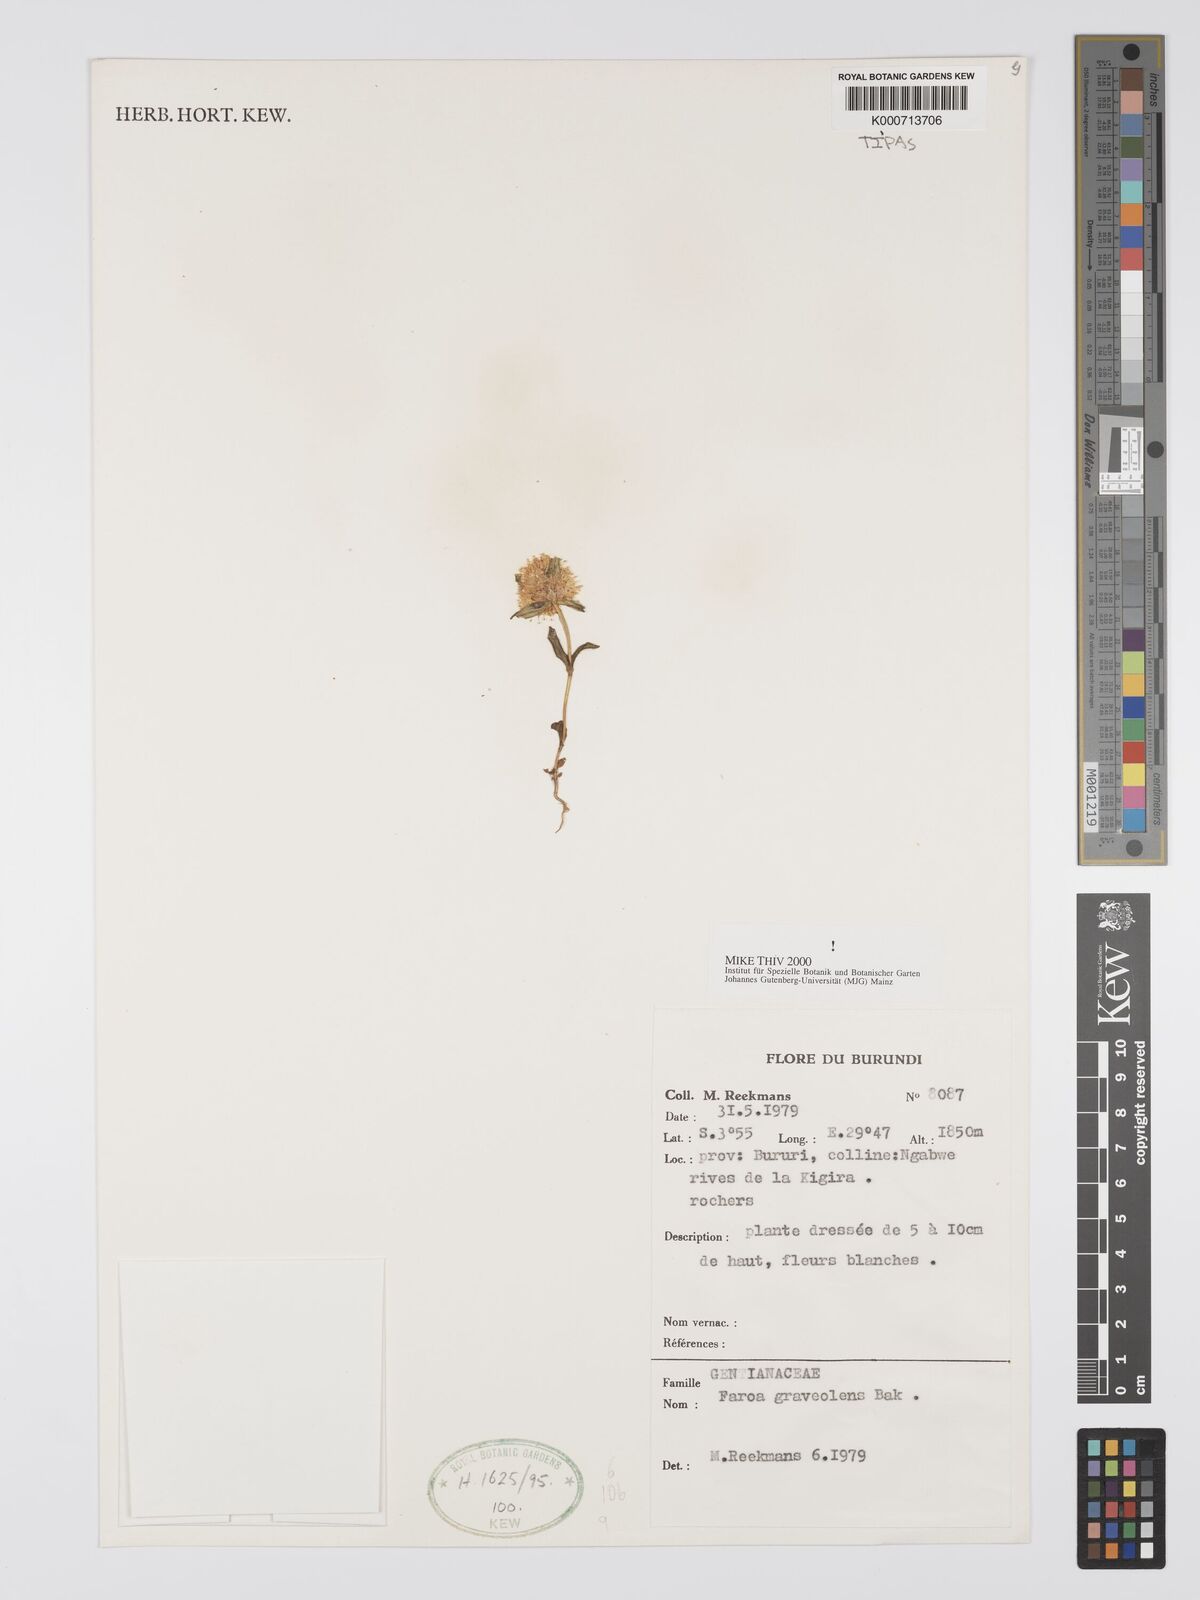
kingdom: Plantae
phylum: Tracheophyta
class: Magnoliopsida
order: Gentianales
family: Gentianaceae
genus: Faroa
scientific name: Faroa graveolens
